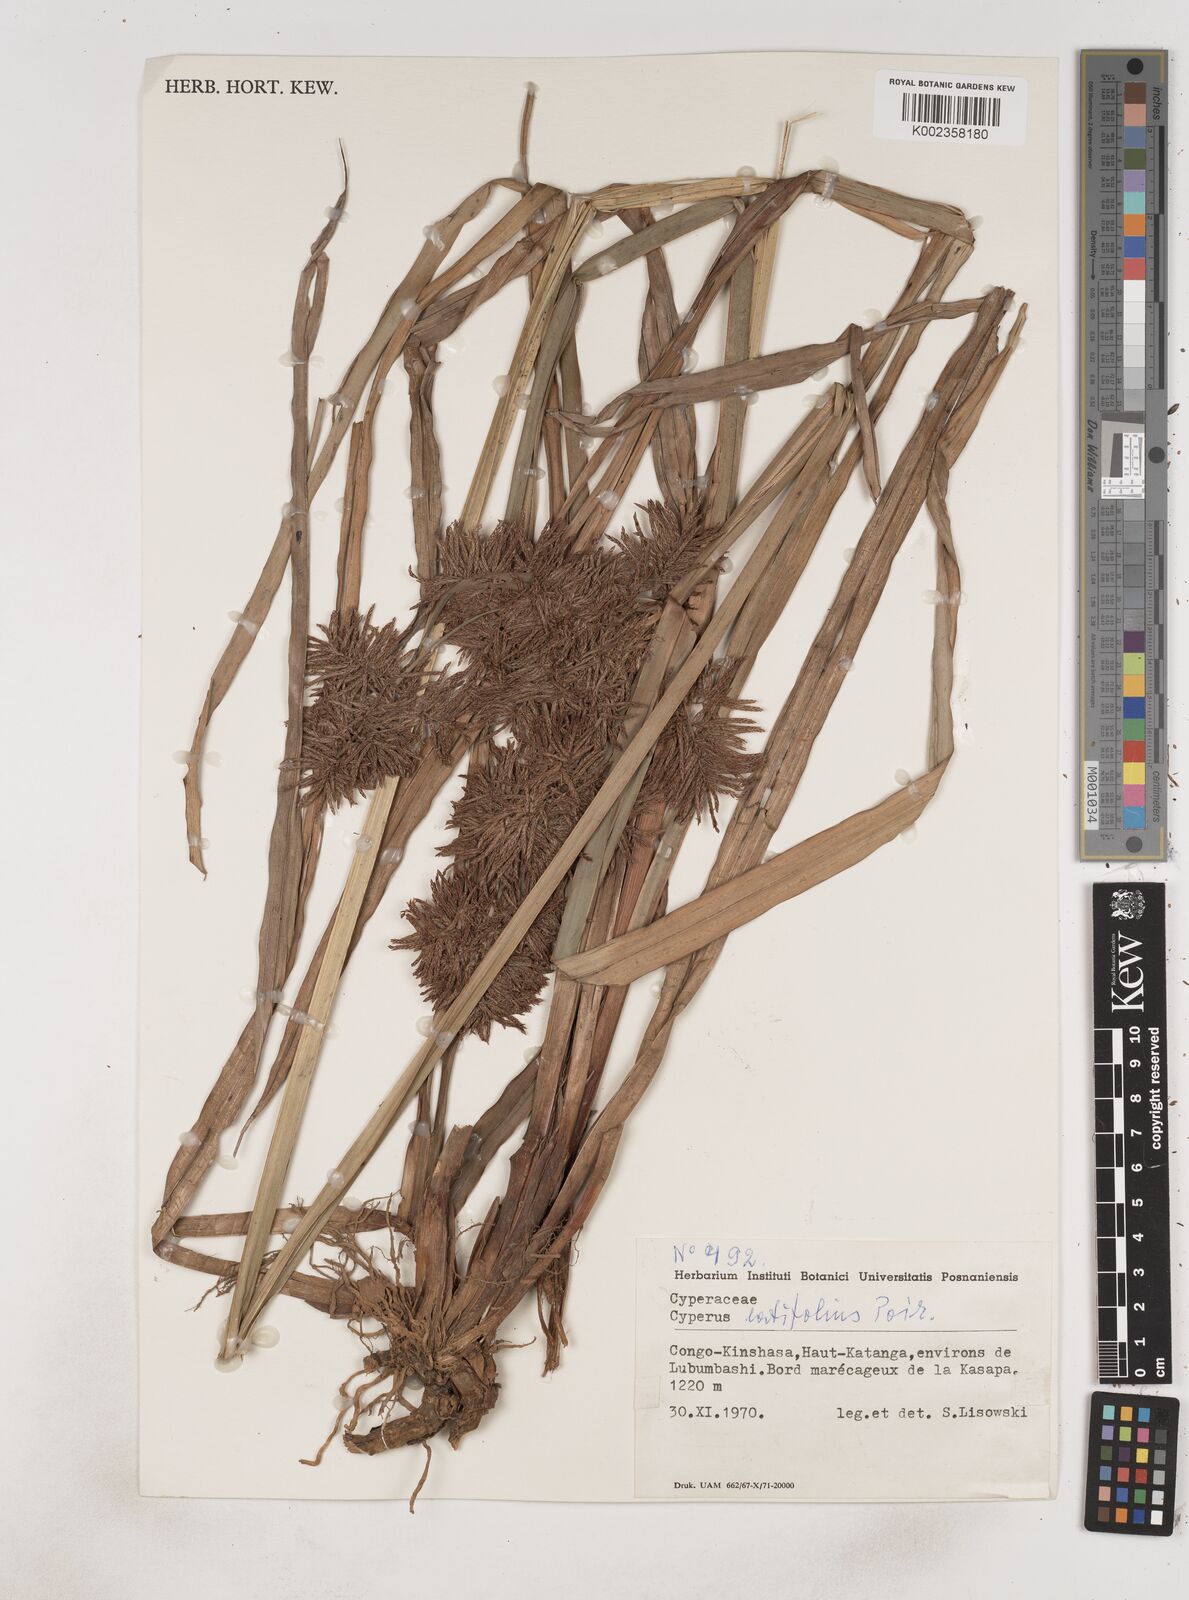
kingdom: Plantae
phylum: Tracheophyta
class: Liliopsida
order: Poales
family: Cyperaceae
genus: Cyperus
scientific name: Cyperus latifolius
